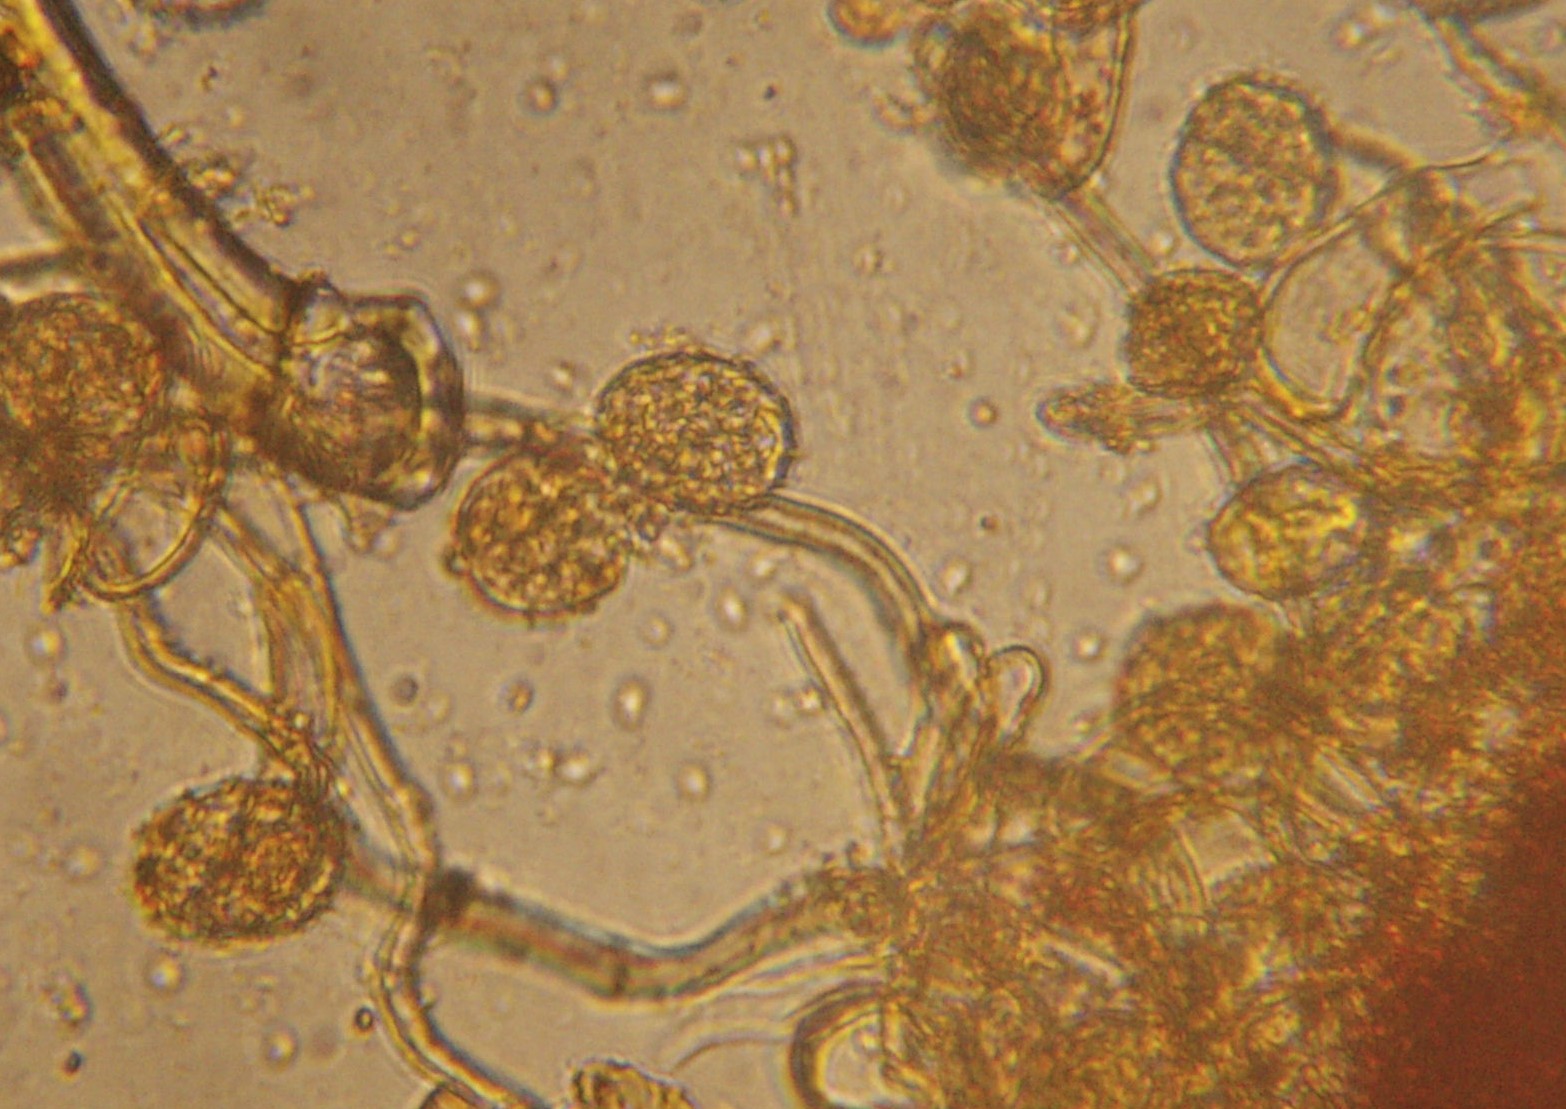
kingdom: Fungi
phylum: Basidiomycota
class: Pucciniomycetes
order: Pucciniales
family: Phragmidiaceae
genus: Phragmidium
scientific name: Phragmidium rubi-idaei
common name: hindbær-flercellerust
